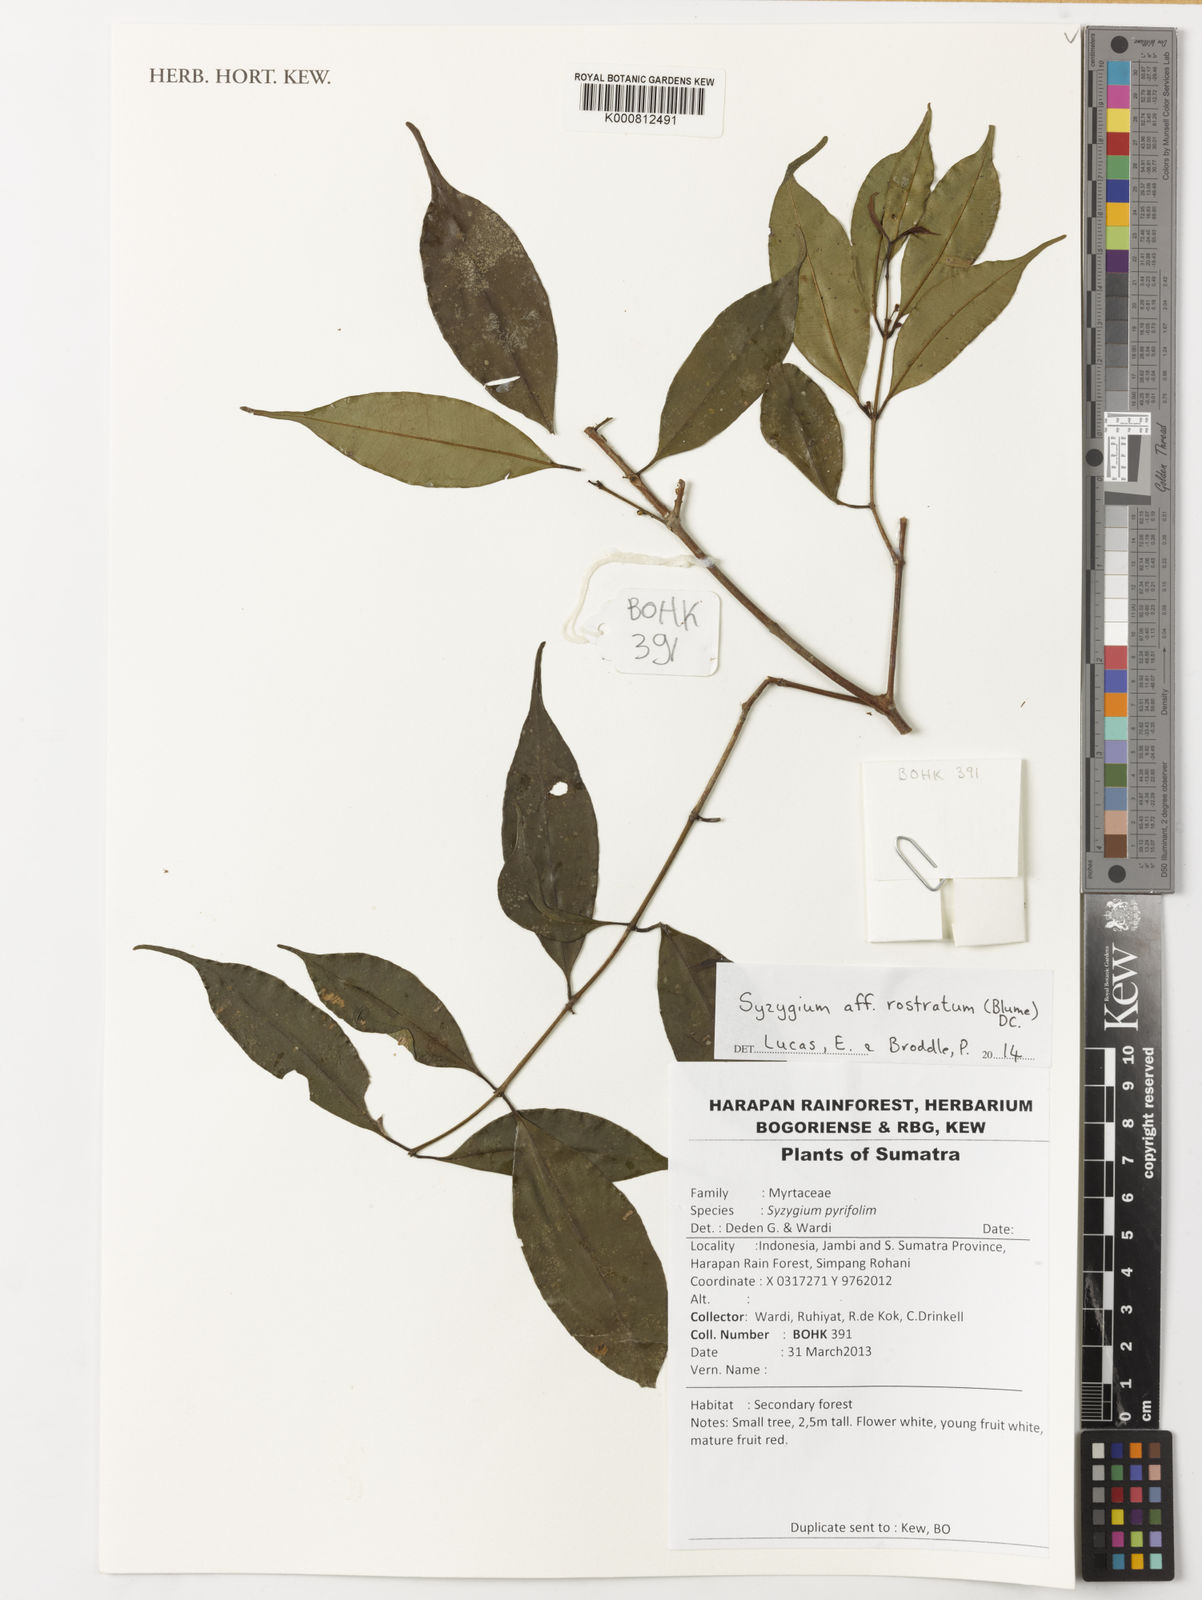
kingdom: Plantae
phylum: Tracheophyta
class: Magnoliopsida
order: Myrtales
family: Myrtaceae
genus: Syzygium
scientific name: Syzygium rostratum
